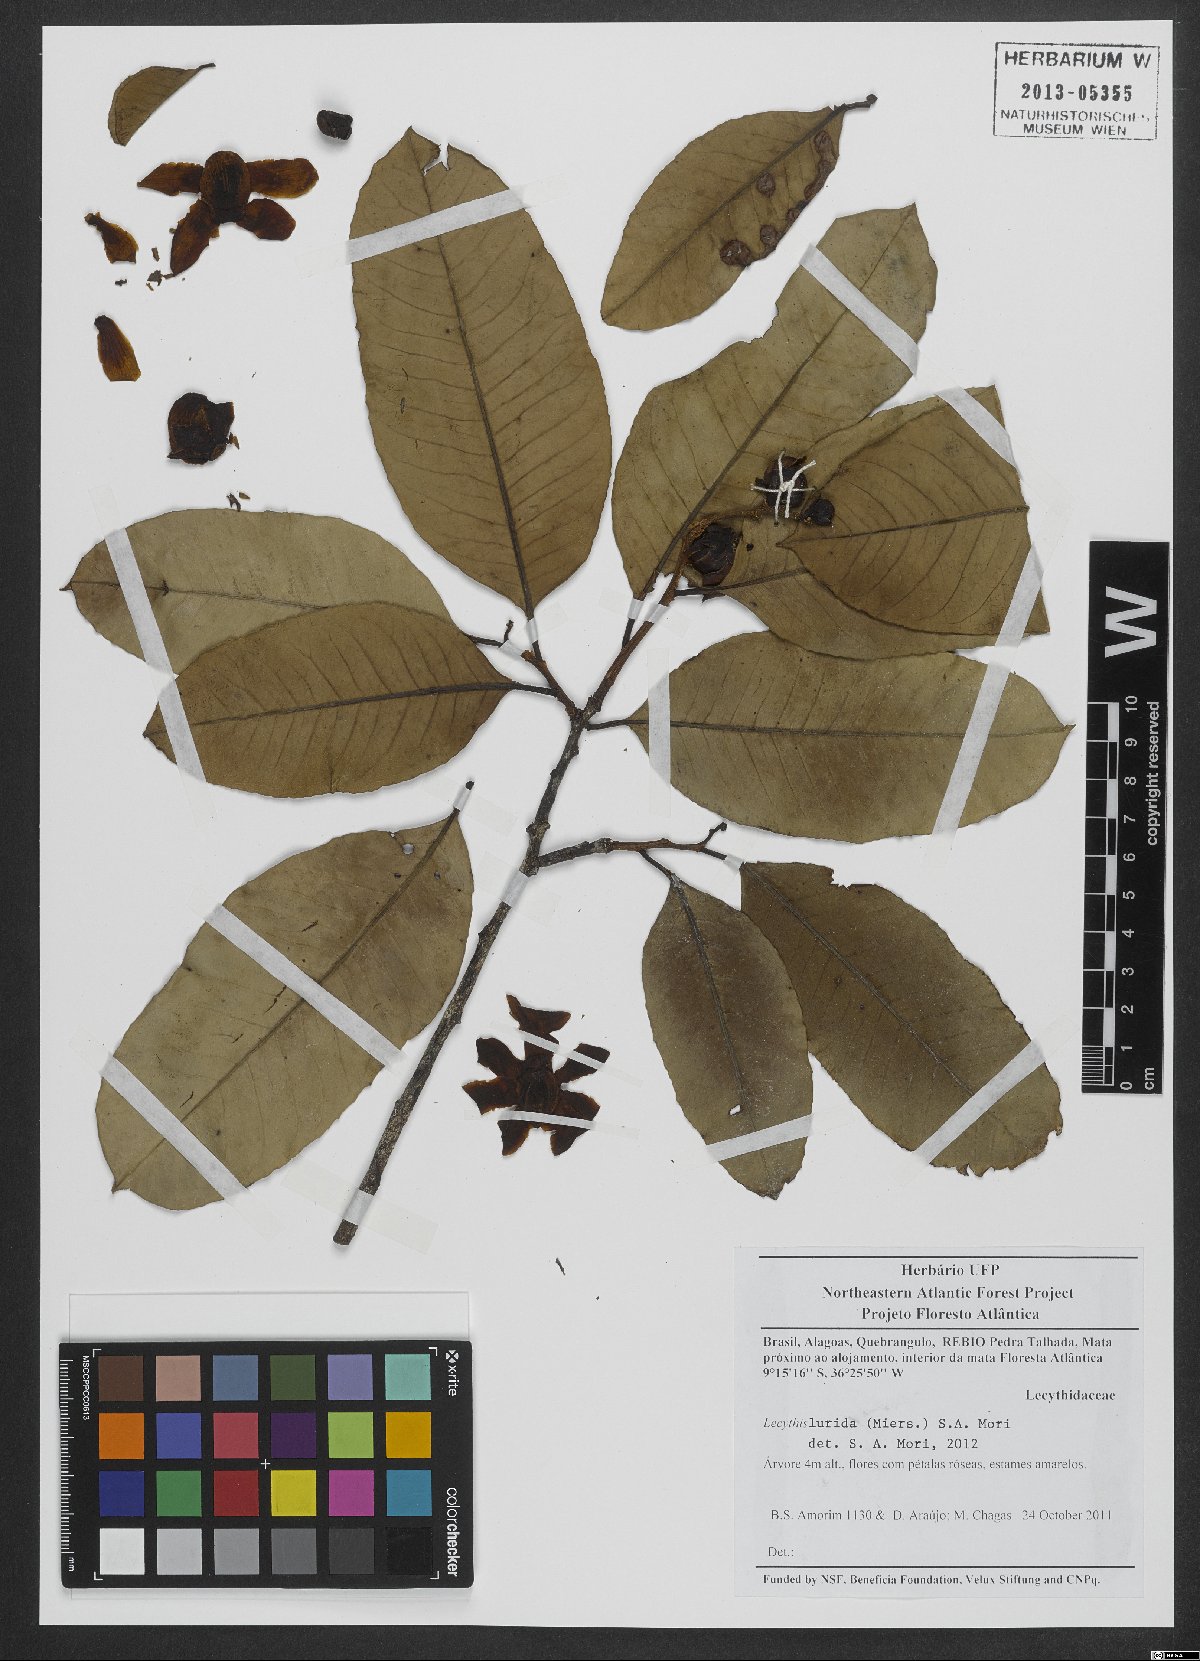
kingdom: Plantae
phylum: Tracheophyta
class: Magnoliopsida
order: Ericales
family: Lecythidaceae
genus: Lecythis
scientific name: Lecythis lurida
